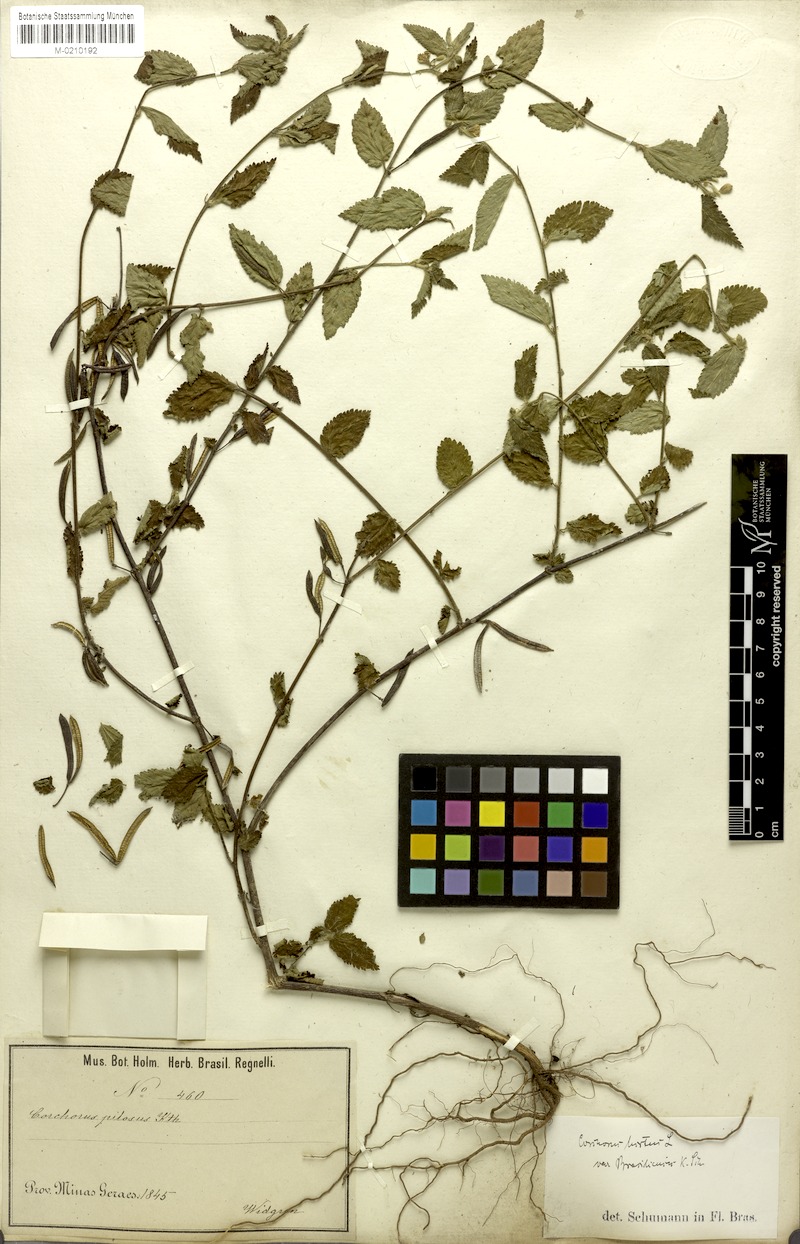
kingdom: Plantae
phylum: Tracheophyta
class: Magnoliopsida
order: Malvales
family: Malvaceae
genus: Corchorus
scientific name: Corchorus hirtus
